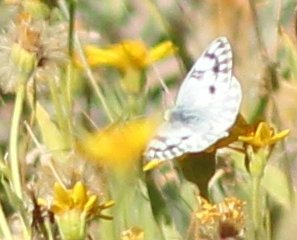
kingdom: Animalia
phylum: Arthropoda
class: Insecta
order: Lepidoptera
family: Pieridae
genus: Pontia
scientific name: Pontia occidentalis
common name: Western White
